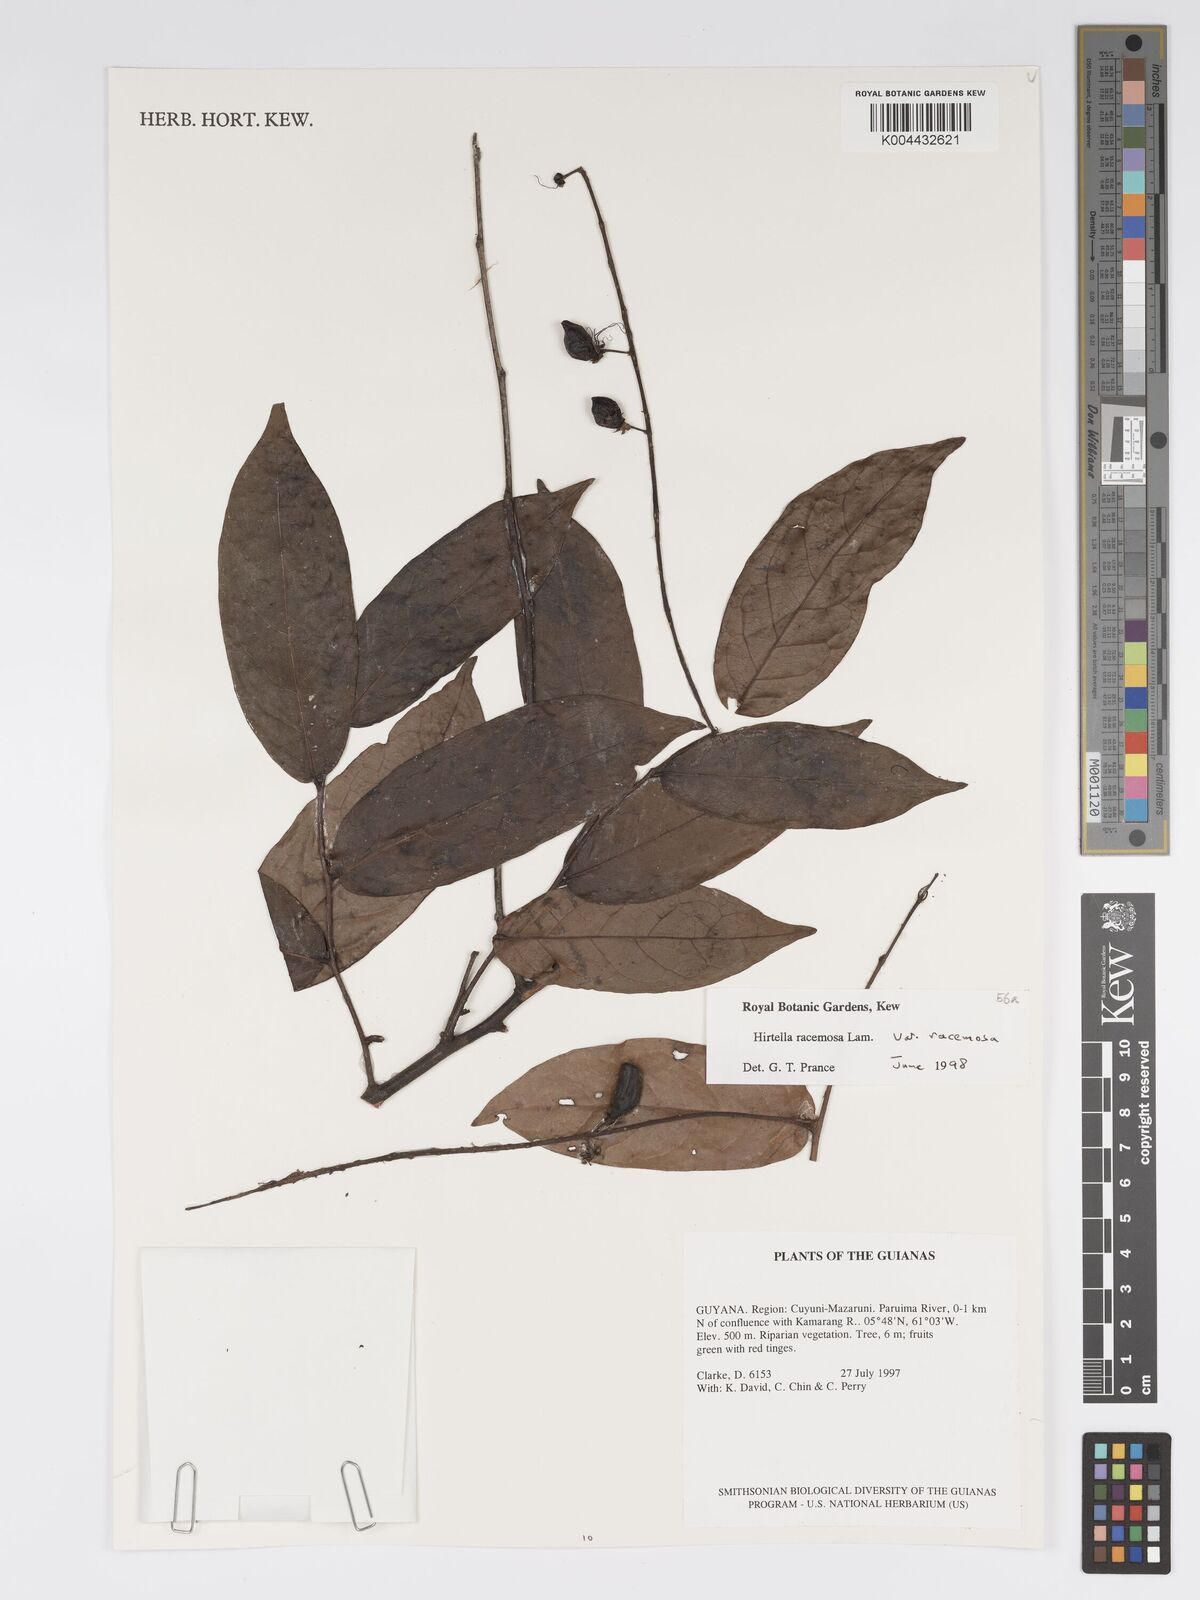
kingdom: Plantae
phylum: Tracheophyta
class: Magnoliopsida
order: Malpighiales
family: Chrysobalanaceae
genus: Hirtella
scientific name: Hirtella racemosa
